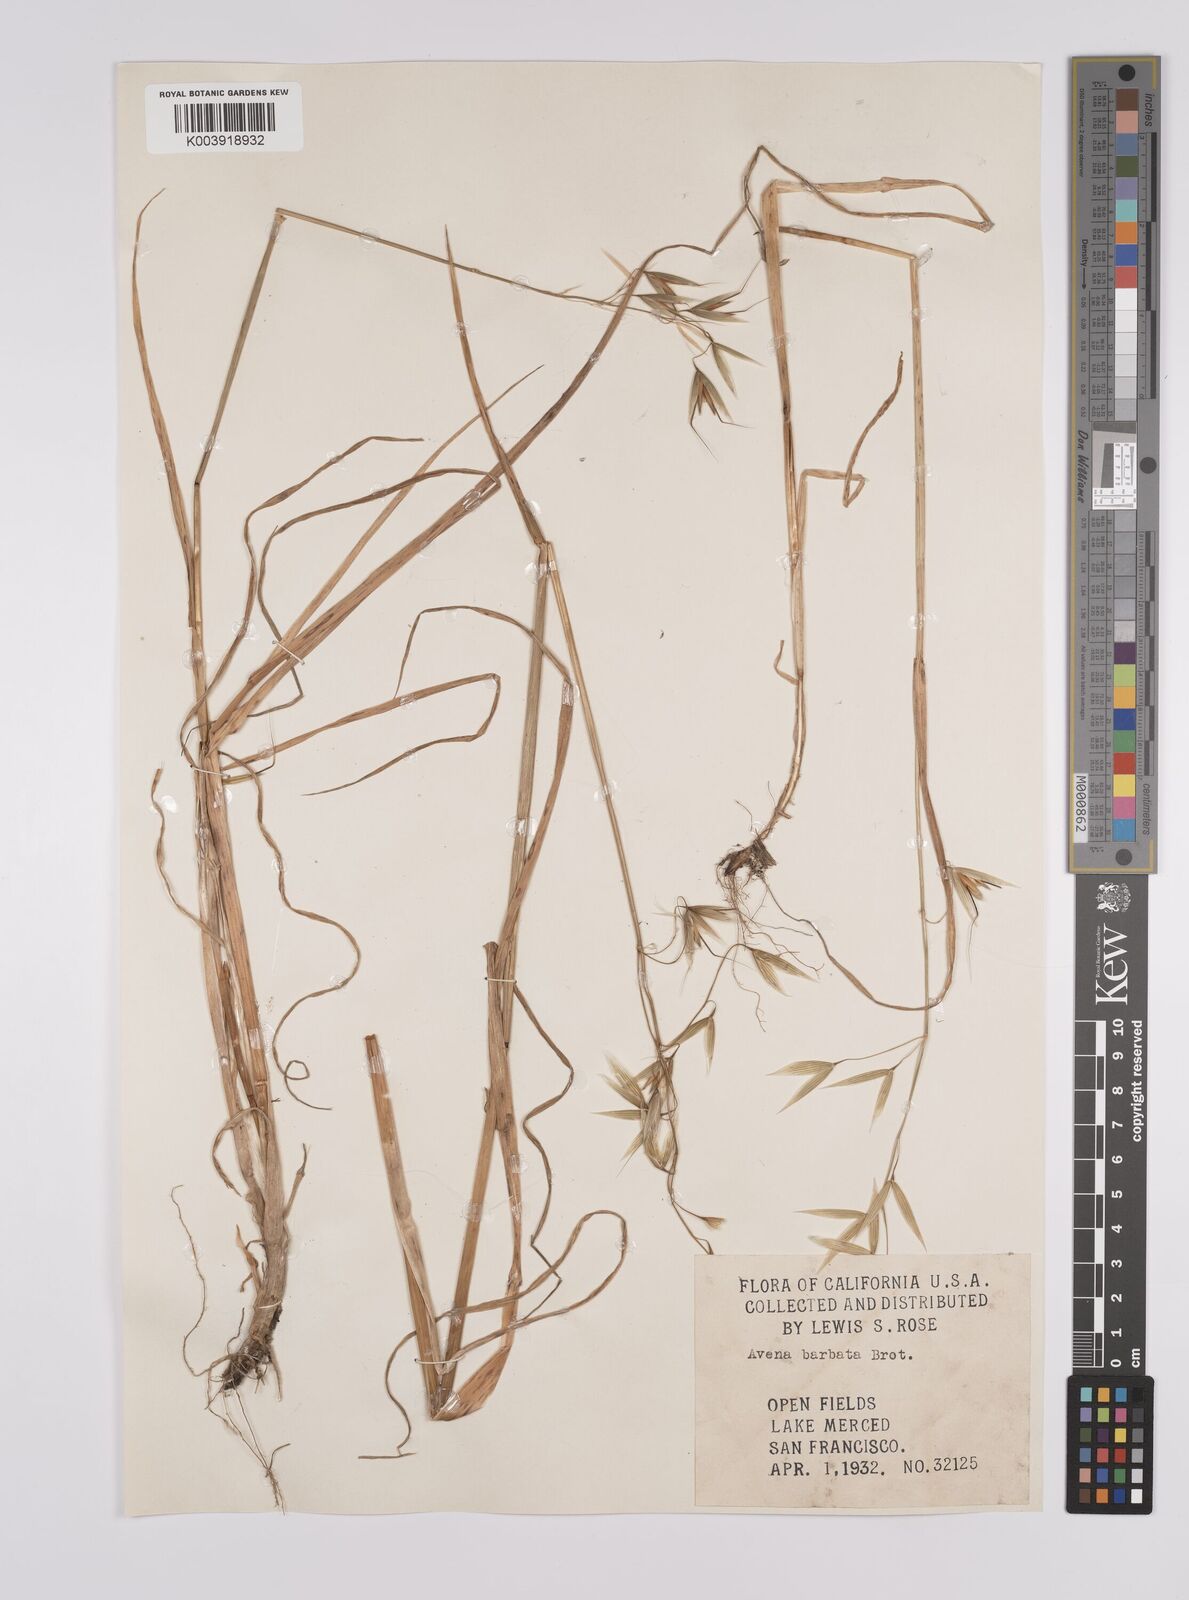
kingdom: Plantae
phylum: Tracheophyta
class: Liliopsida
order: Poales
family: Poaceae
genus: Avena
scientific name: Avena
